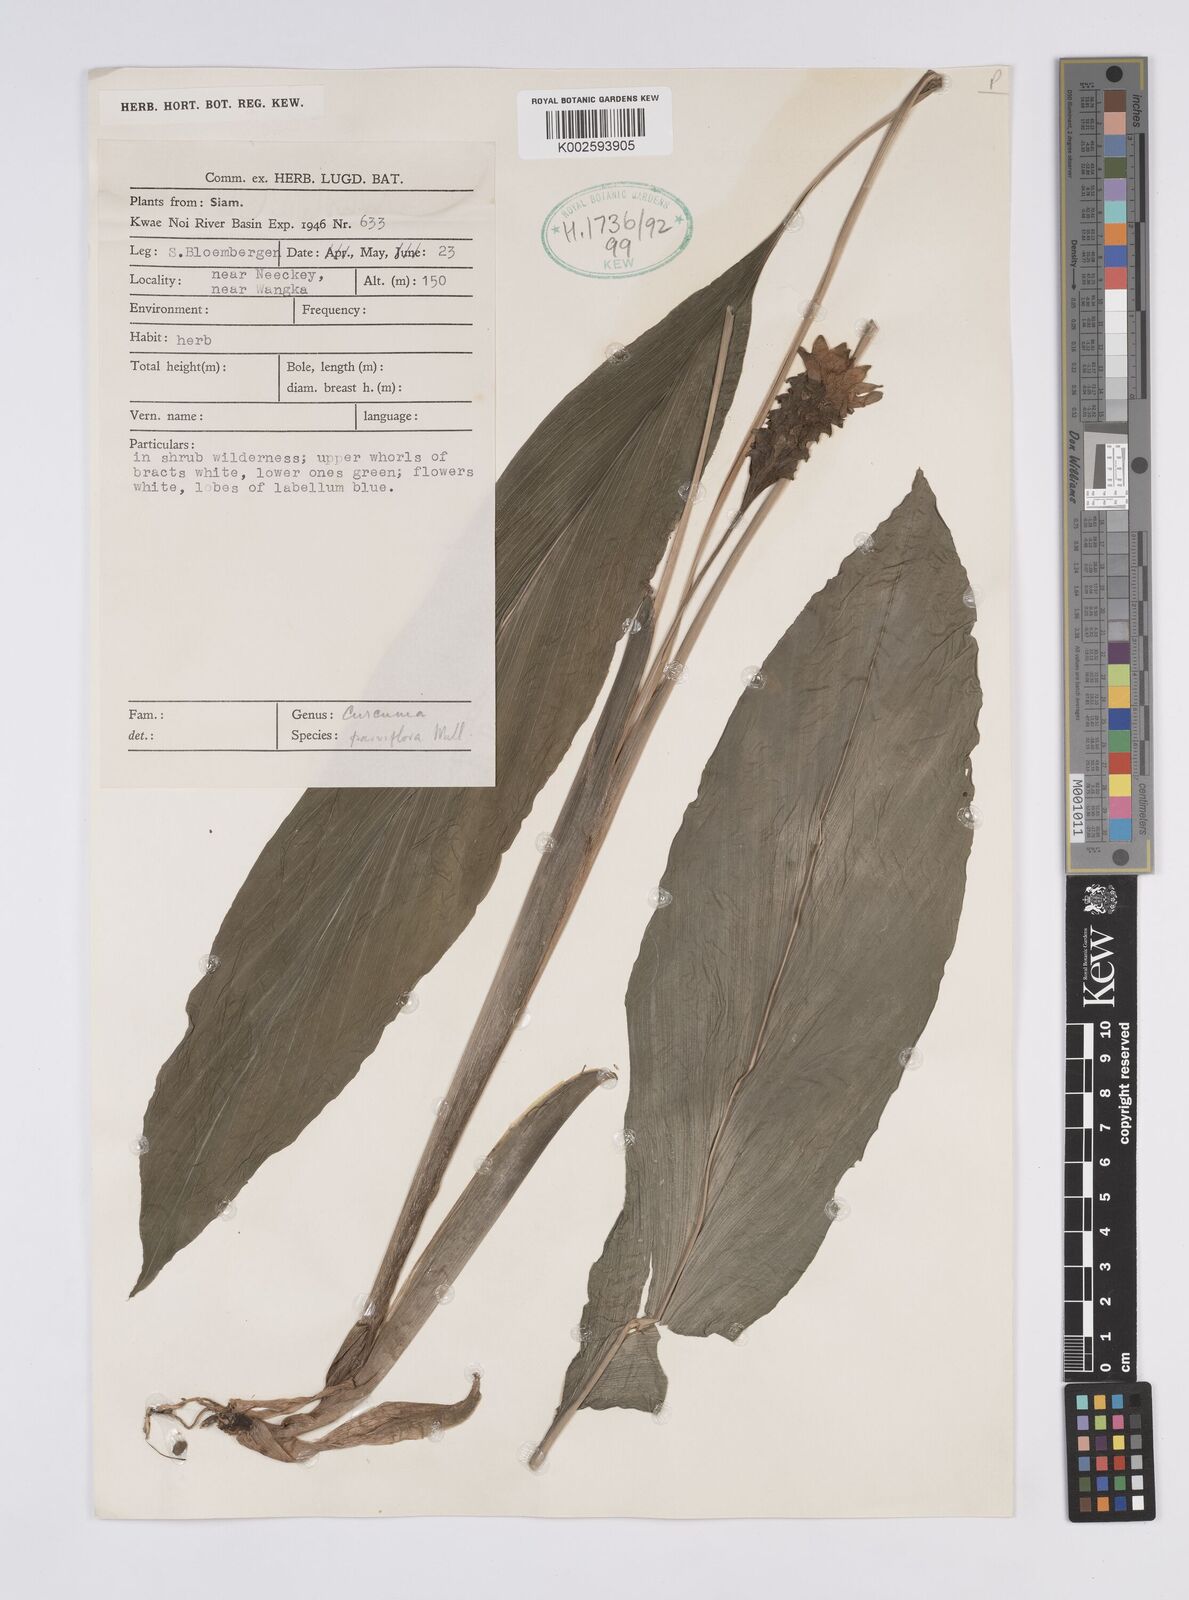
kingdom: Plantae
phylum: Tracheophyta
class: Liliopsida
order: Zingiberales
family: Zingiberaceae
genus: Curcuma
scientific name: Curcuma parviflora
